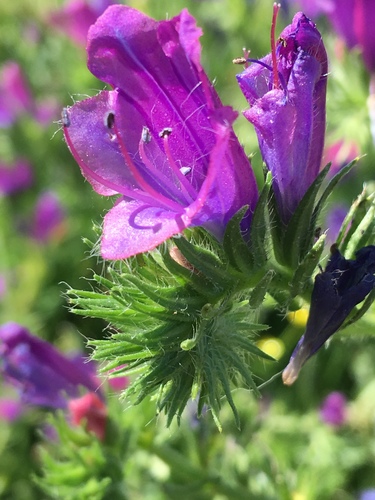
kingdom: Plantae
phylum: Tracheophyta
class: Magnoliopsida
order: Boraginales
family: Boraginaceae
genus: Echium
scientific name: Echium plantagineum
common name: Purple viper's-bugloss
